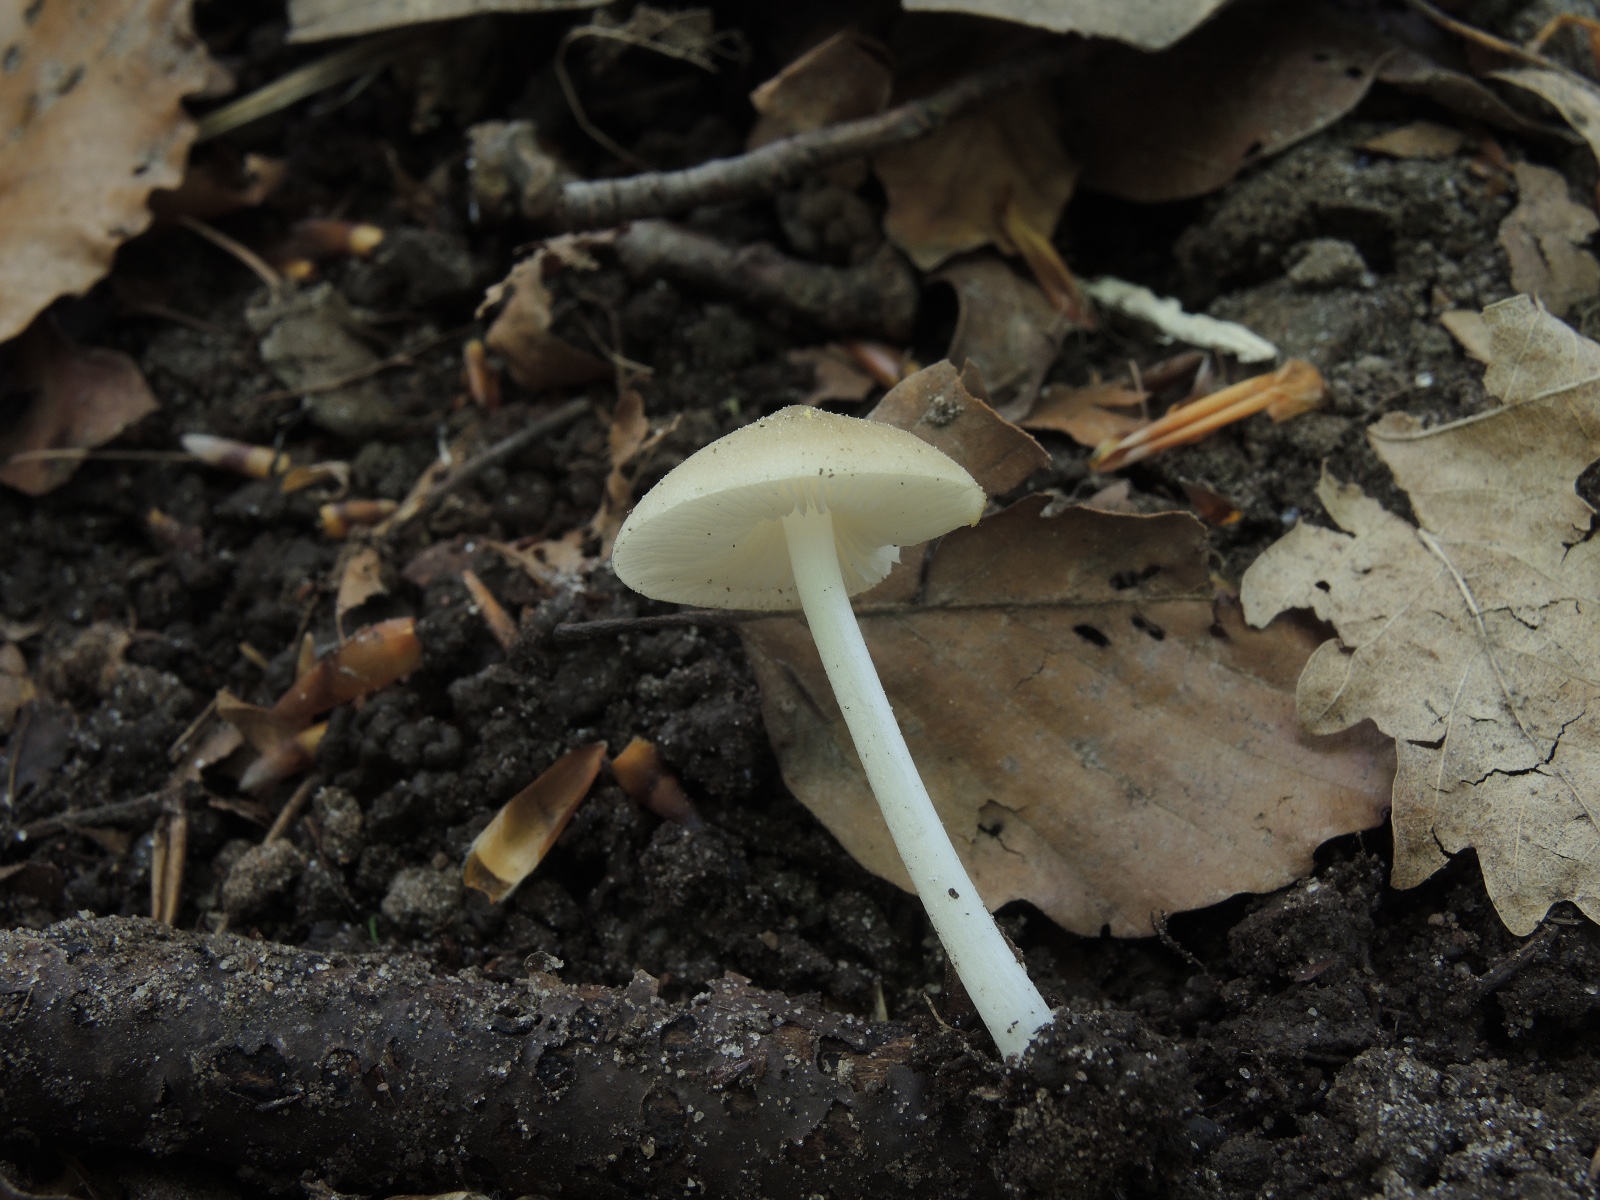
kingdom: Fungi
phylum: Basidiomycota
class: Agaricomycetes
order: Agaricales
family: Porotheleaceae
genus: Hydropodia
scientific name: Hydropodia subalpina
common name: vår-fnugfod
